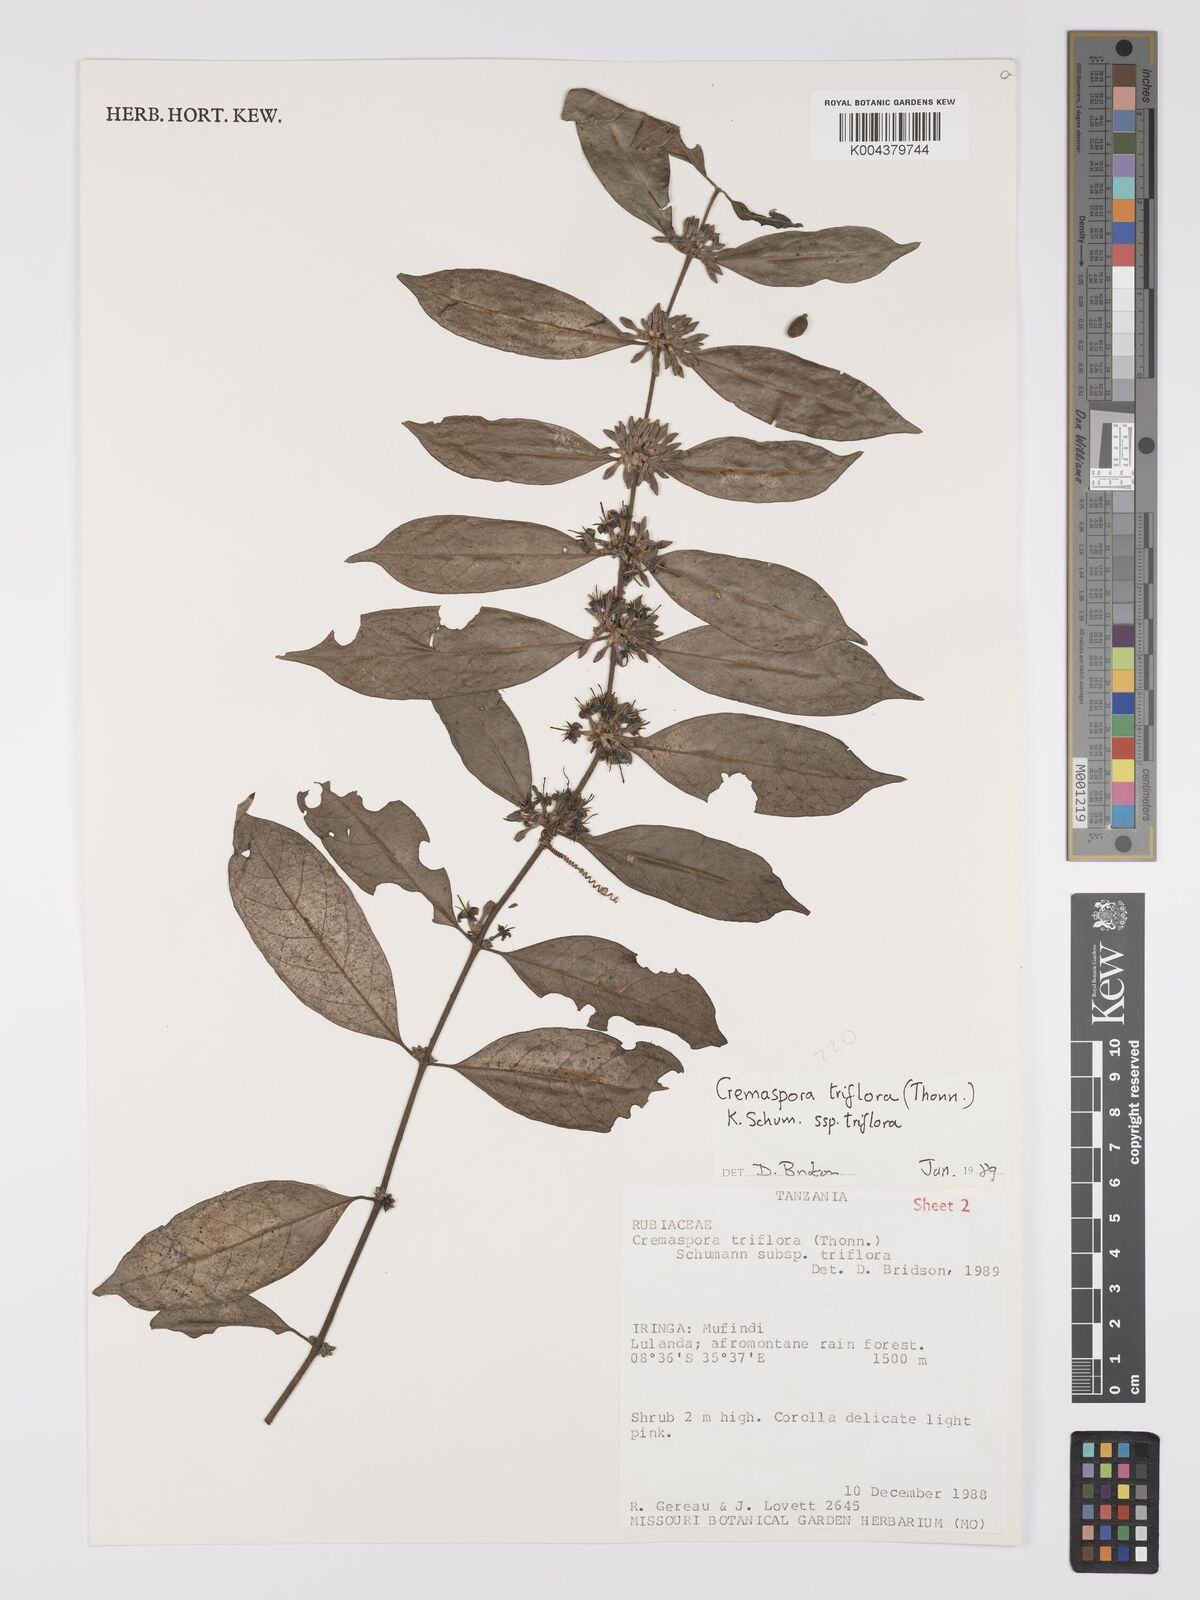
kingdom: Plantae
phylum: Tracheophyta
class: Magnoliopsida
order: Gentianales
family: Rubiaceae
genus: Cremaspora
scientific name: Cremaspora triflora
